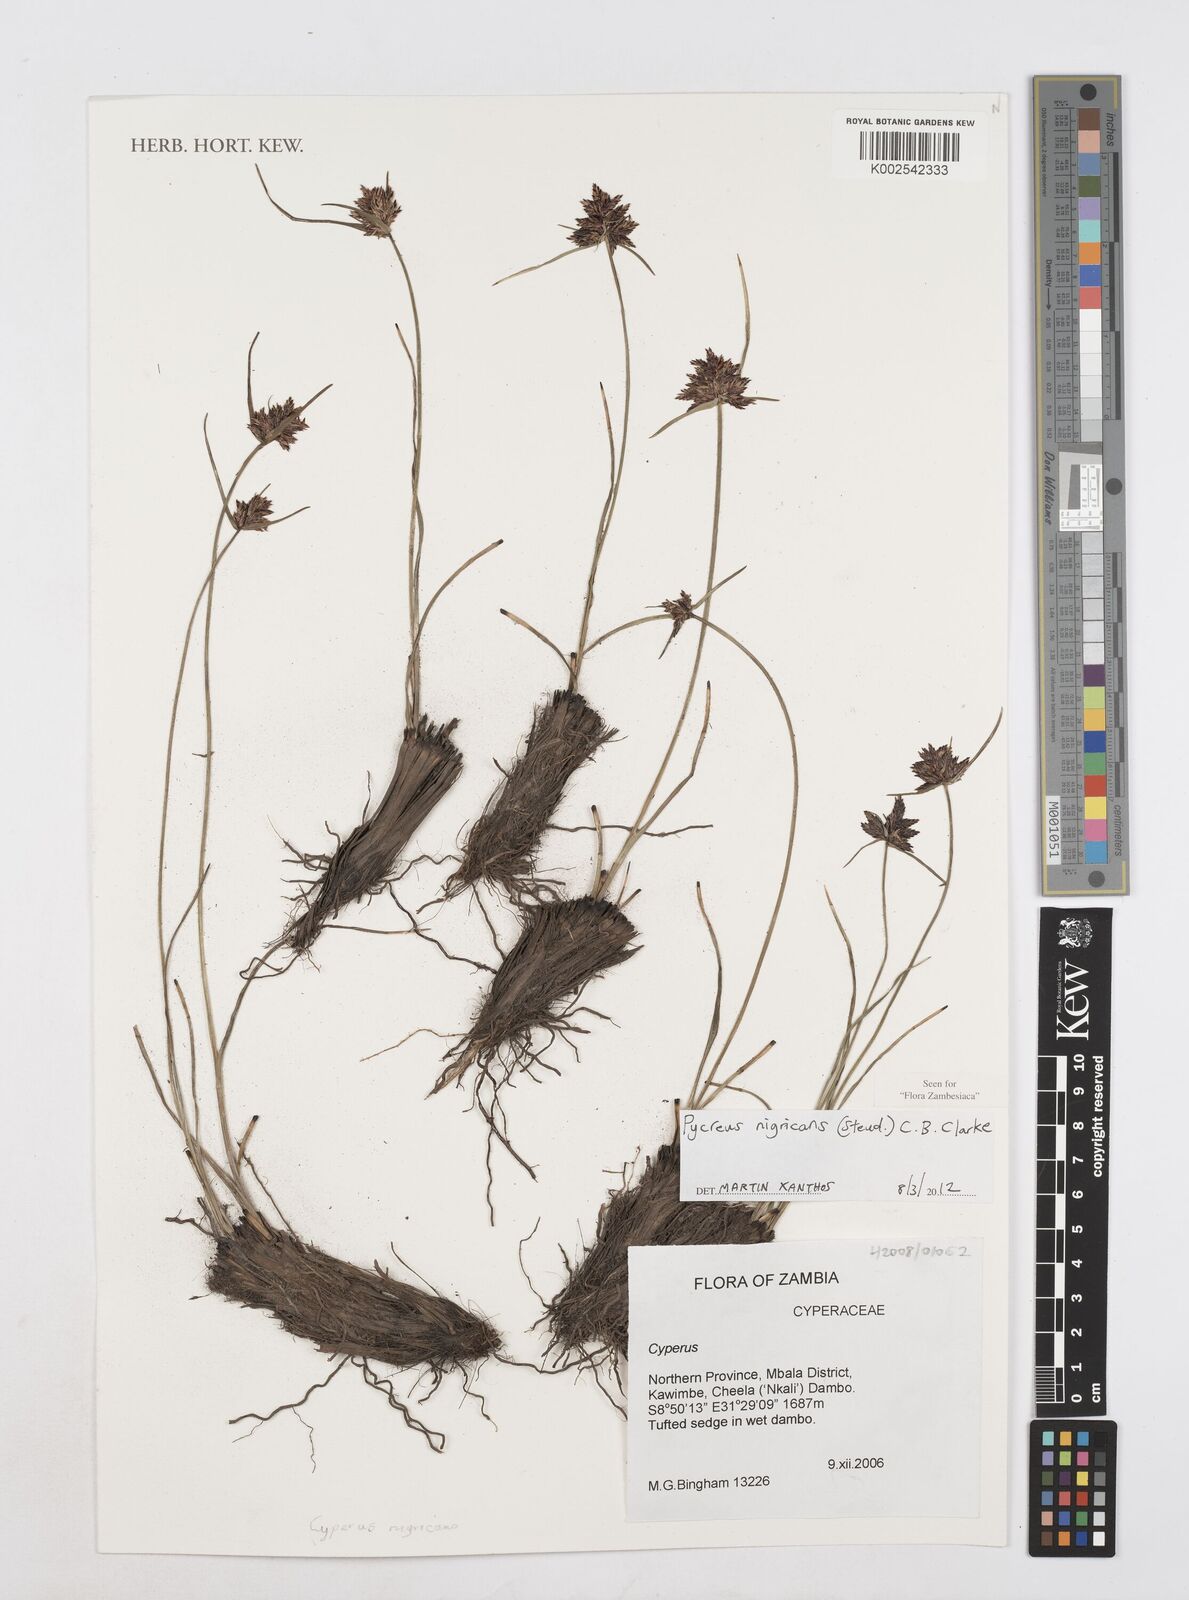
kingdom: Plantae
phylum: Tracheophyta
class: Liliopsida
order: Poales
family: Cyperaceae
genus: Cyperus
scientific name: Cyperus nigricans
